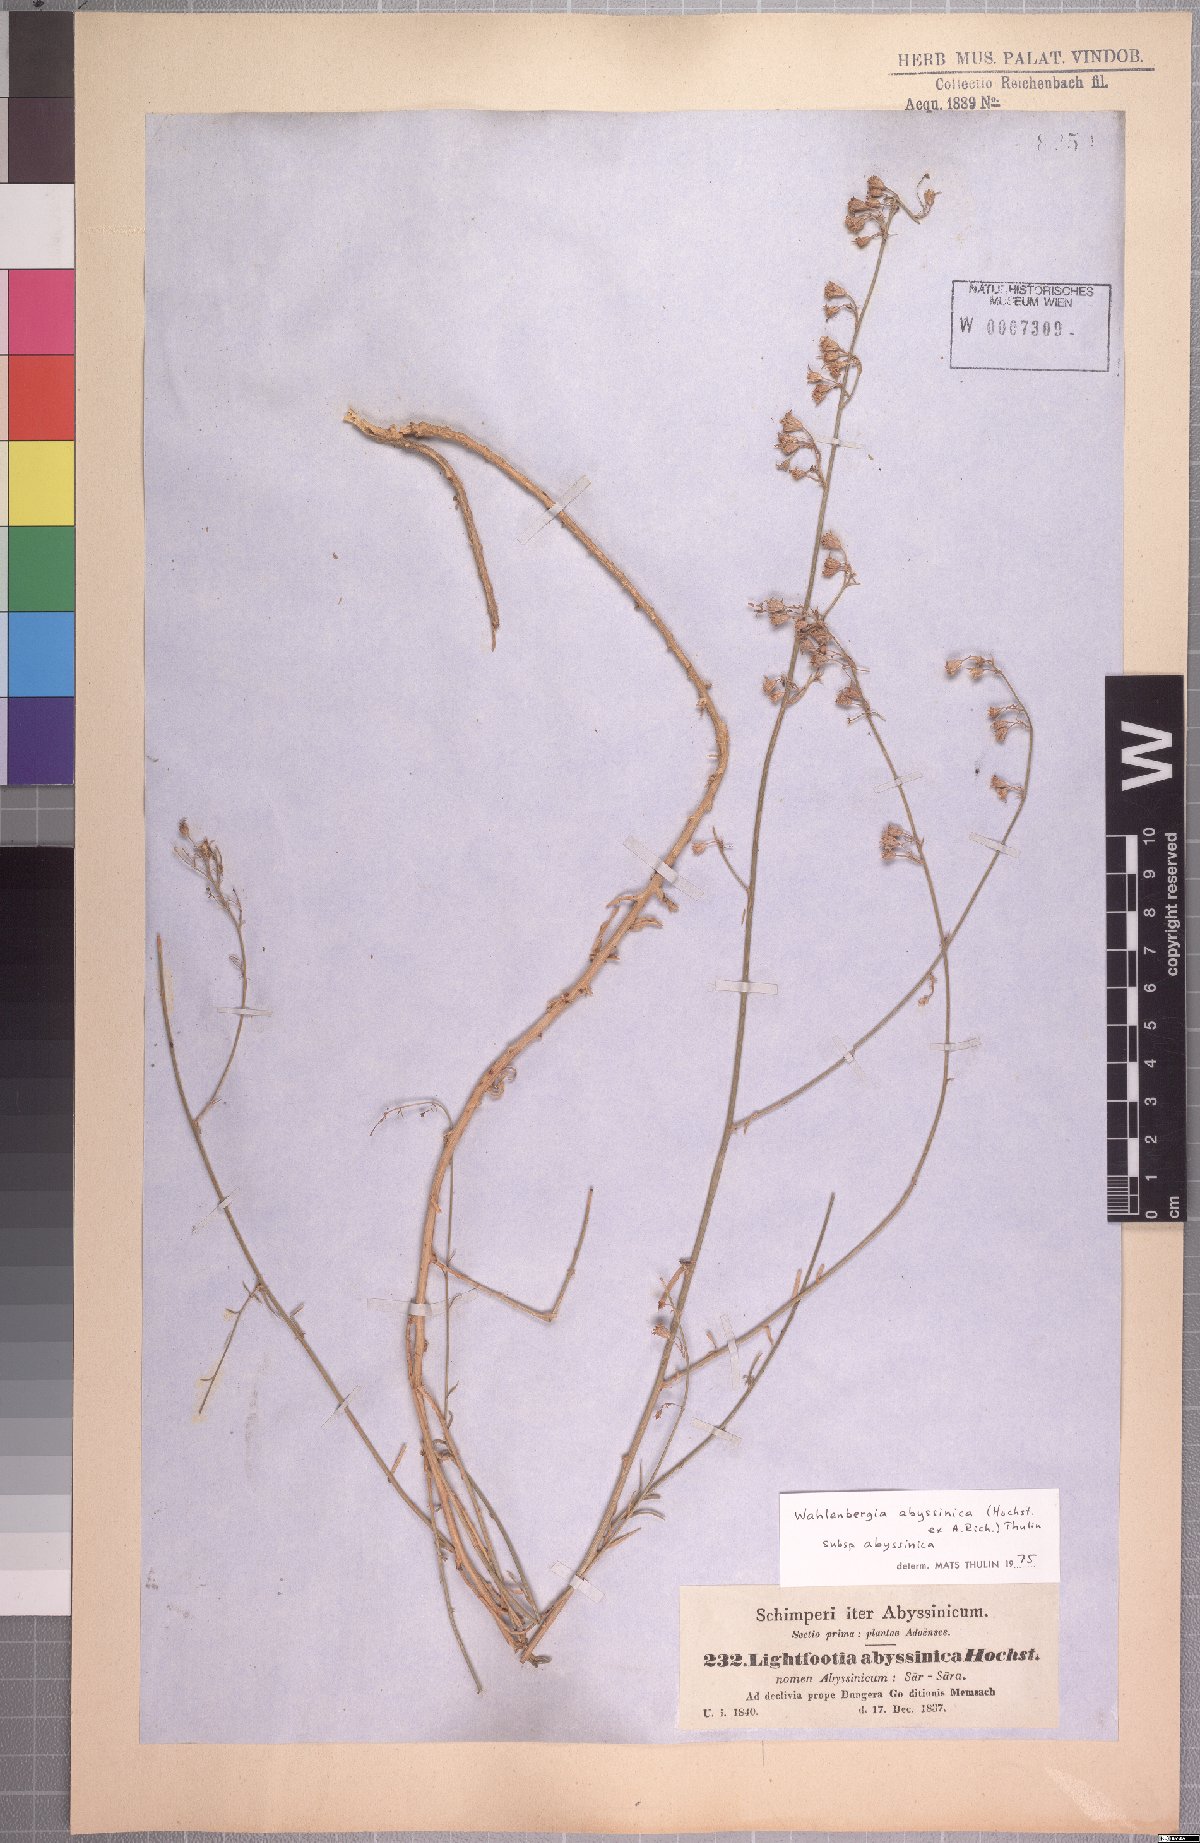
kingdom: Plantae
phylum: Tracheophyta
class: Magnoliopsida
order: Asterales
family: Campanulaceae
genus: Wahlenbergia
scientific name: Wahlenbergia abyssinica
